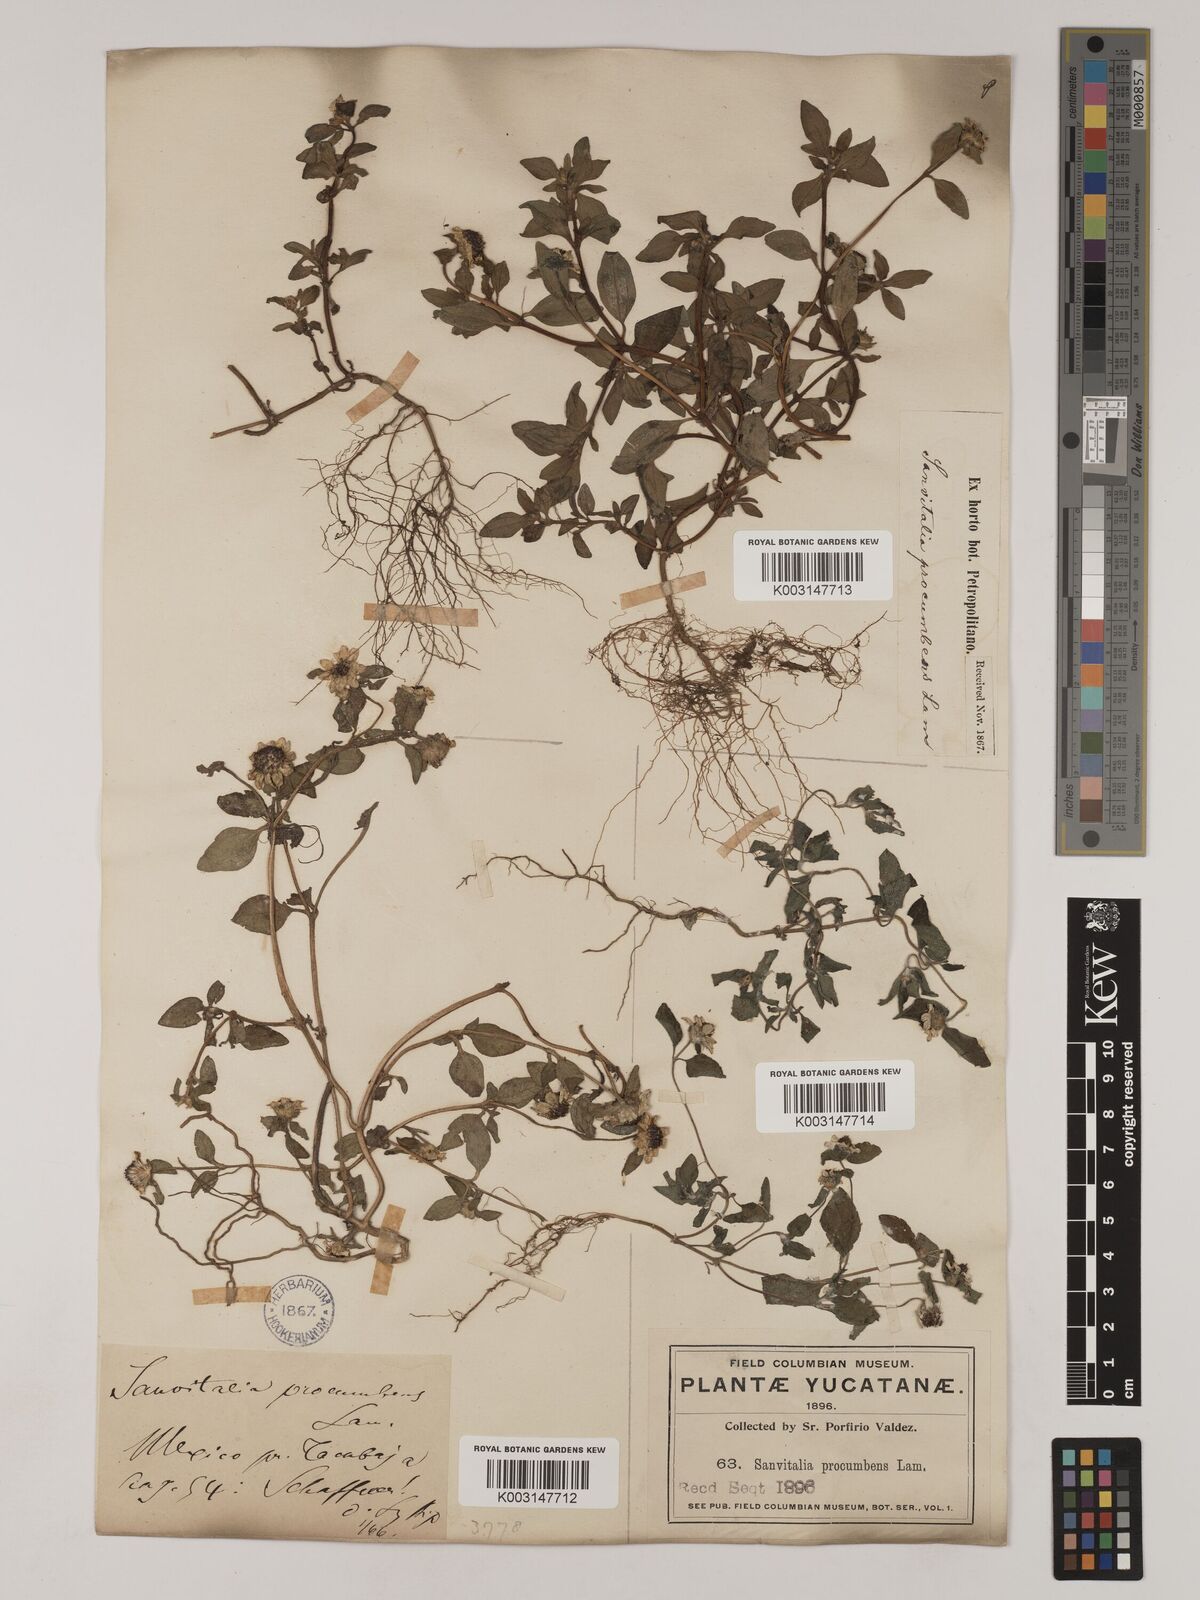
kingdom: Plantae
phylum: Tracheophyta
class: Magnoliopsida
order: Asterales
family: Asteraceae
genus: Sanvitalia
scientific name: Sanvitalia procumbens
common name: Mexican creeping zinnia
